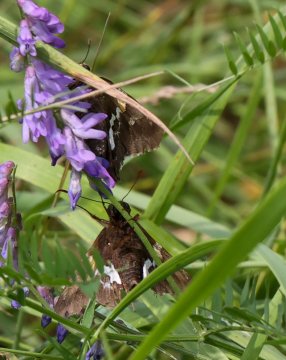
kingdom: Animalia
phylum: Arthropoda
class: Insecta
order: Lepidoptera
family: Hesperiidae
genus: Epargyreus
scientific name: Epargyreus clarus
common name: Silver-spotted Skipper
